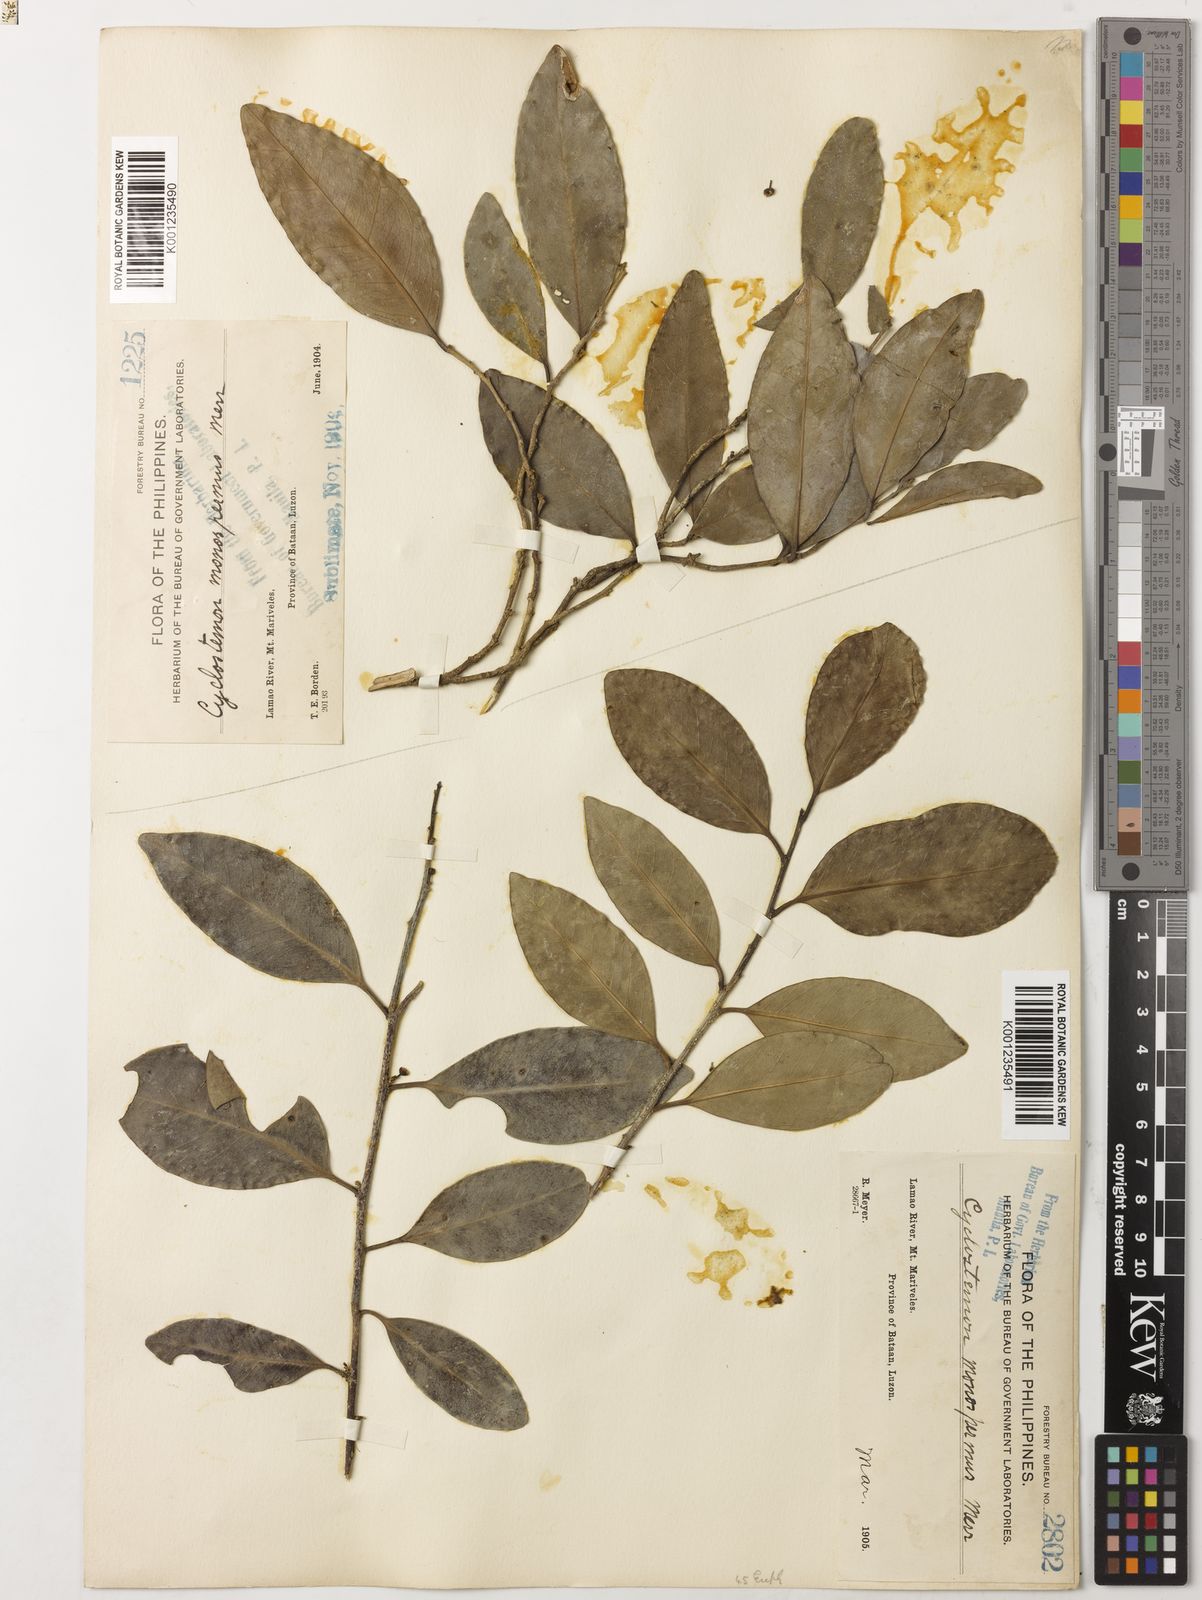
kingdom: Plantae
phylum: Tracheophyta
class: Magnoliopsida
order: Malpighiales
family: Putranjivaceae
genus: Drypetes
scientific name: Drypetes monosperma
